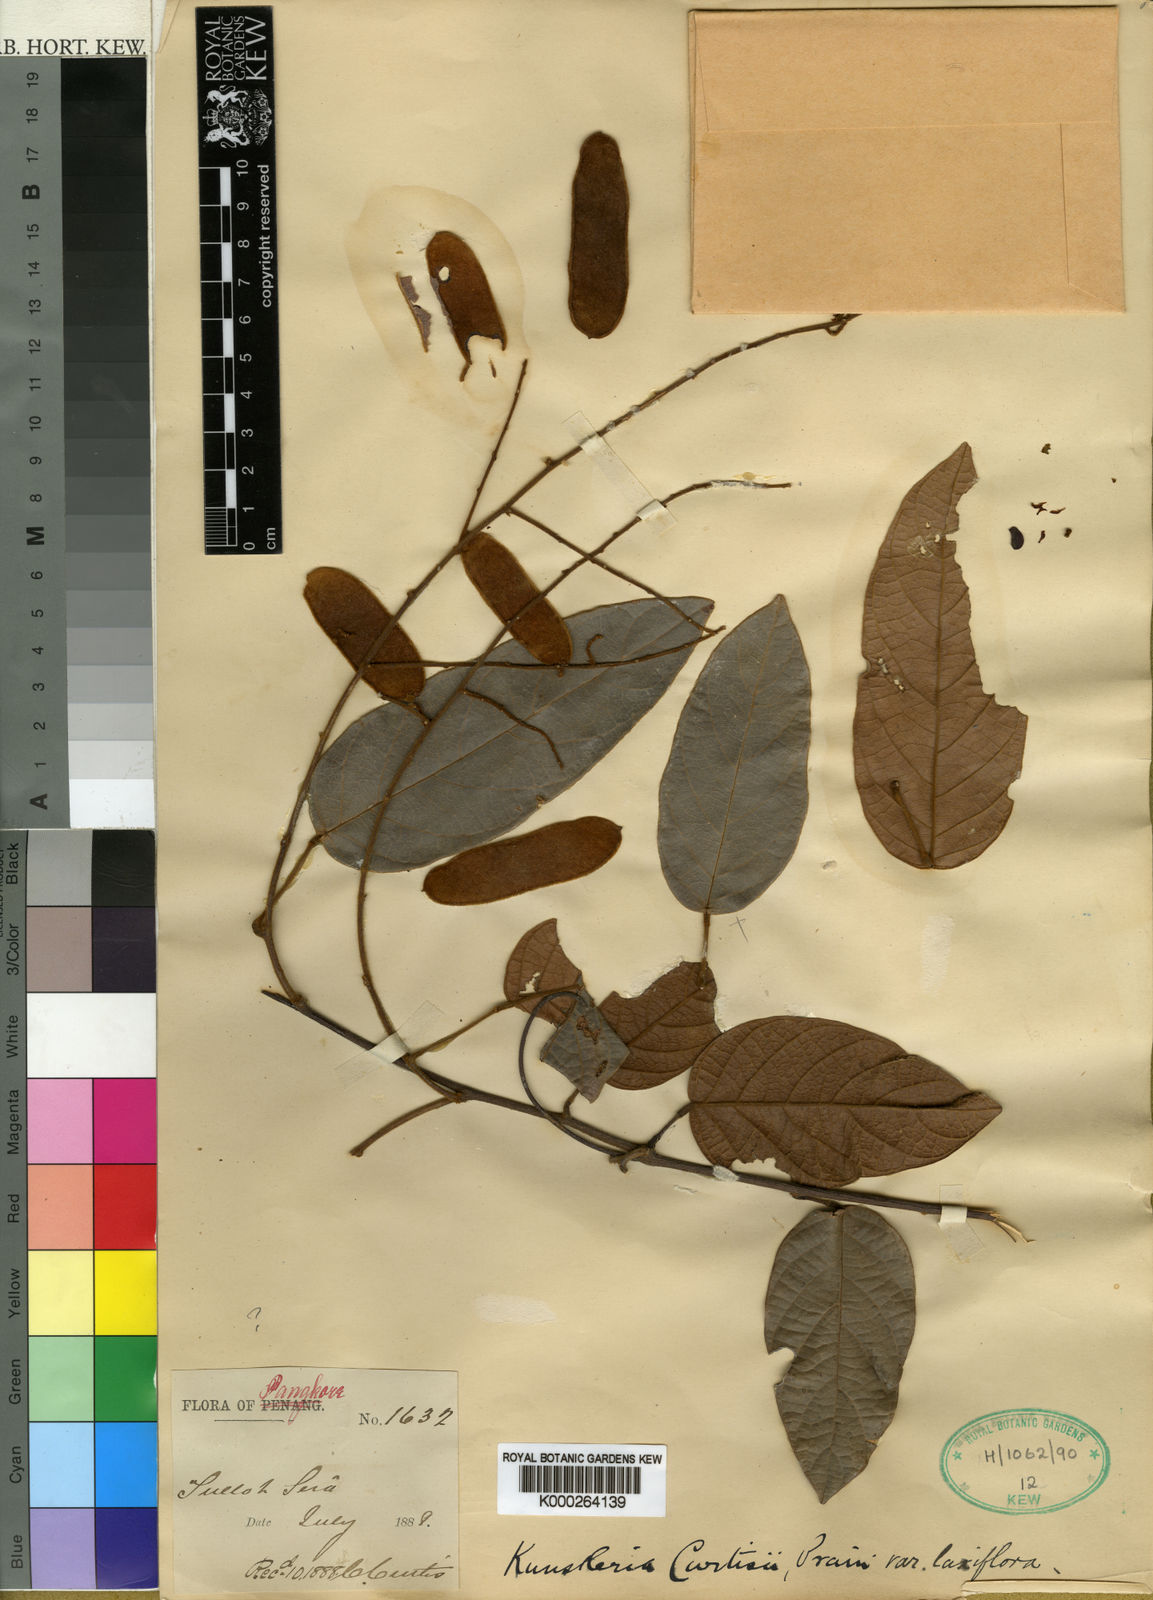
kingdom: Plantae
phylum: Tracheophyta
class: Magnoliopsida
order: Fabales
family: Fabaceae
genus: Kunstleria
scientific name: Kunstleria curtisii
